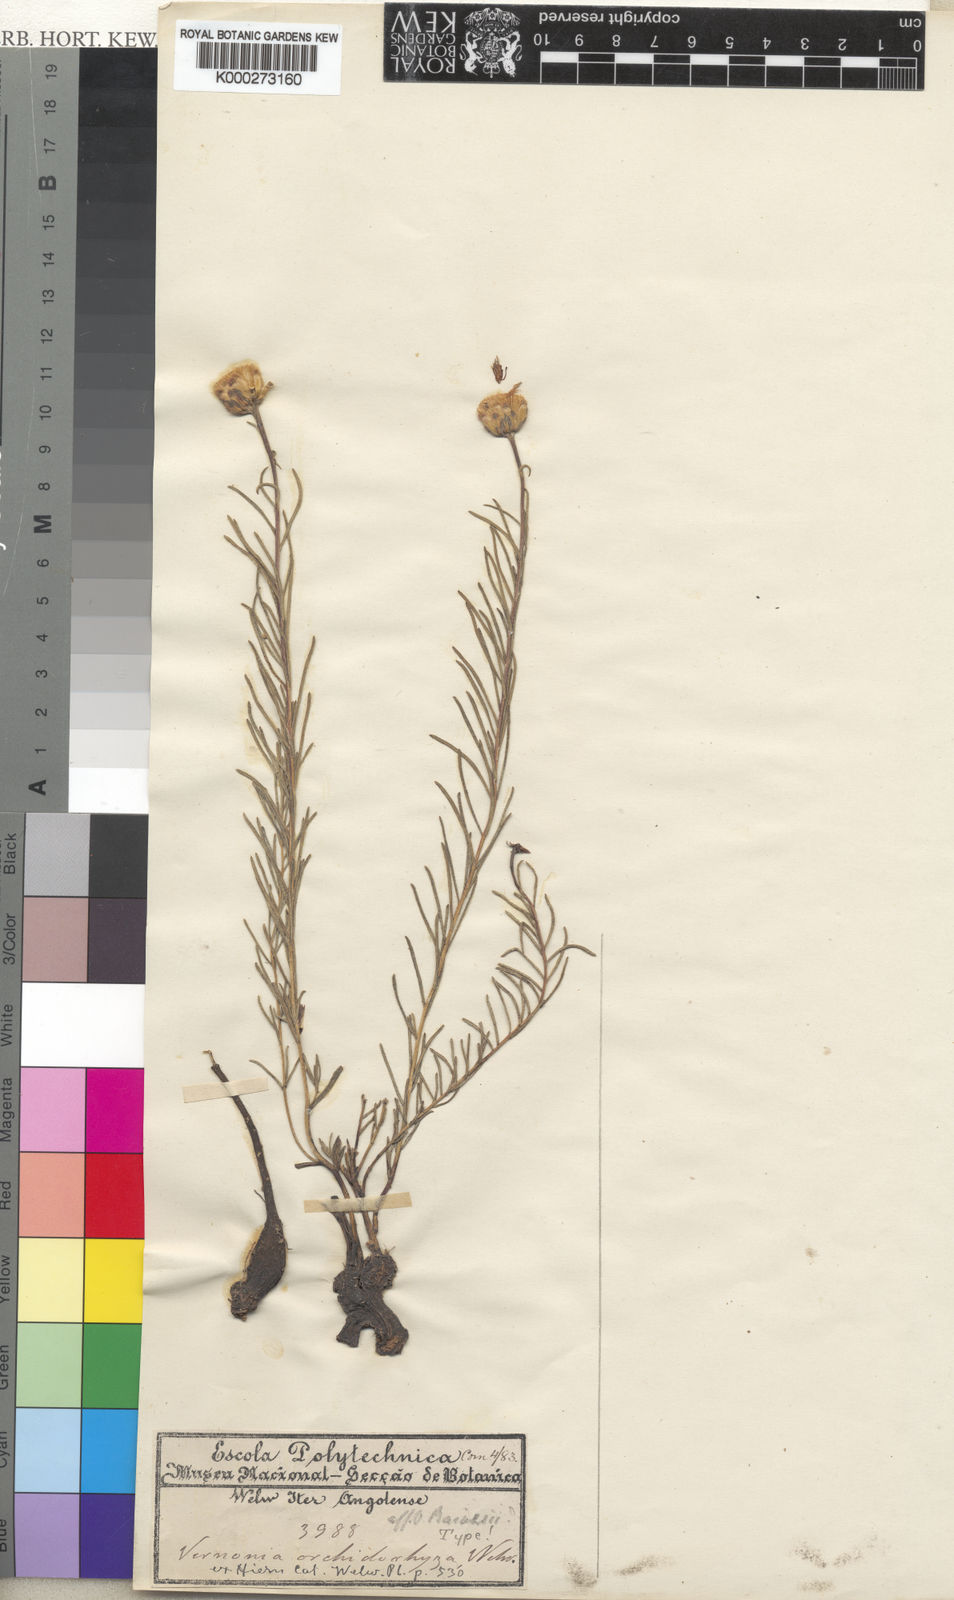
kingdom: Plantae
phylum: Tracheophyta
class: Magnoliopsida
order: Asterales
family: Asteraceae
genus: Vernonia
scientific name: Vernonia orchidorrhiza
